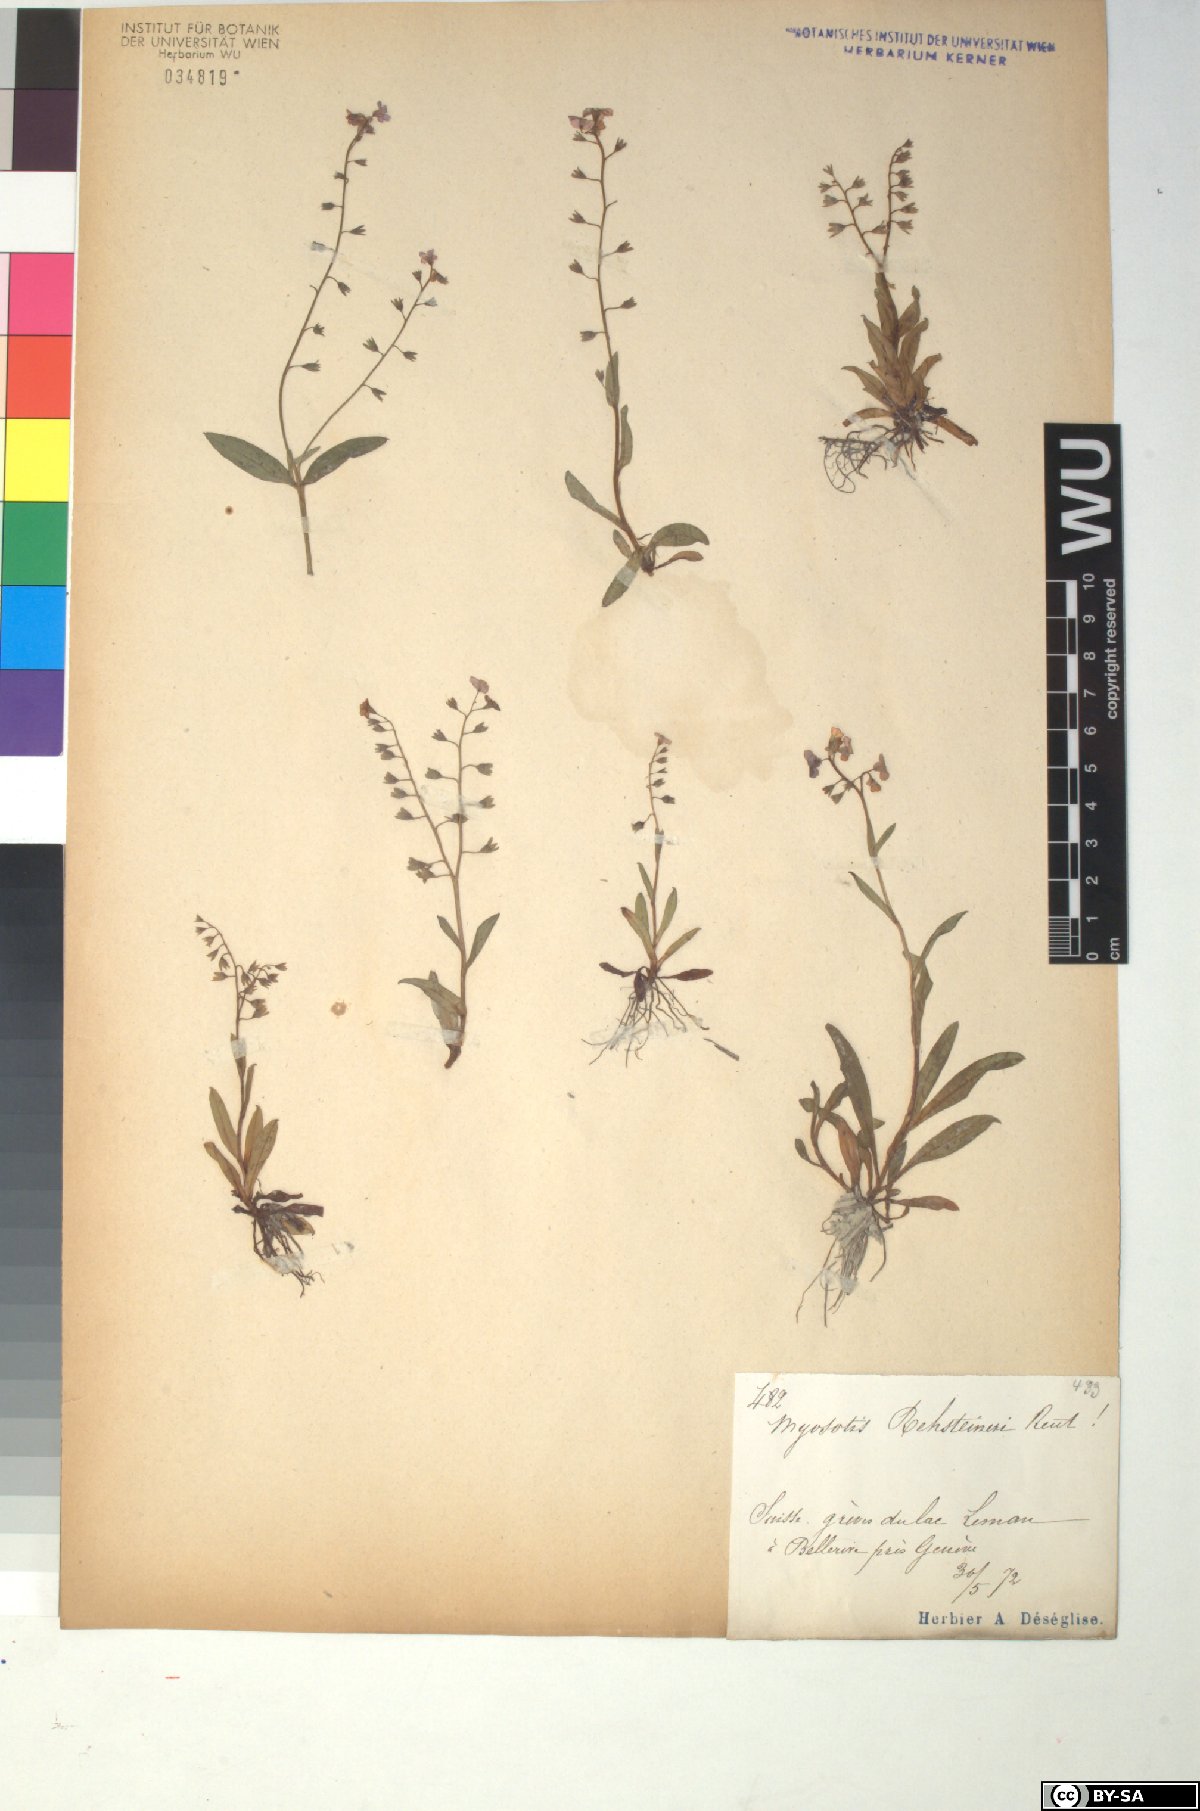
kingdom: Plantae
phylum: Tracheophyta
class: Magnoliopsida
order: Boraginales
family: Boraginaceae
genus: Myosotis
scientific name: Myosotis rehsteineri
